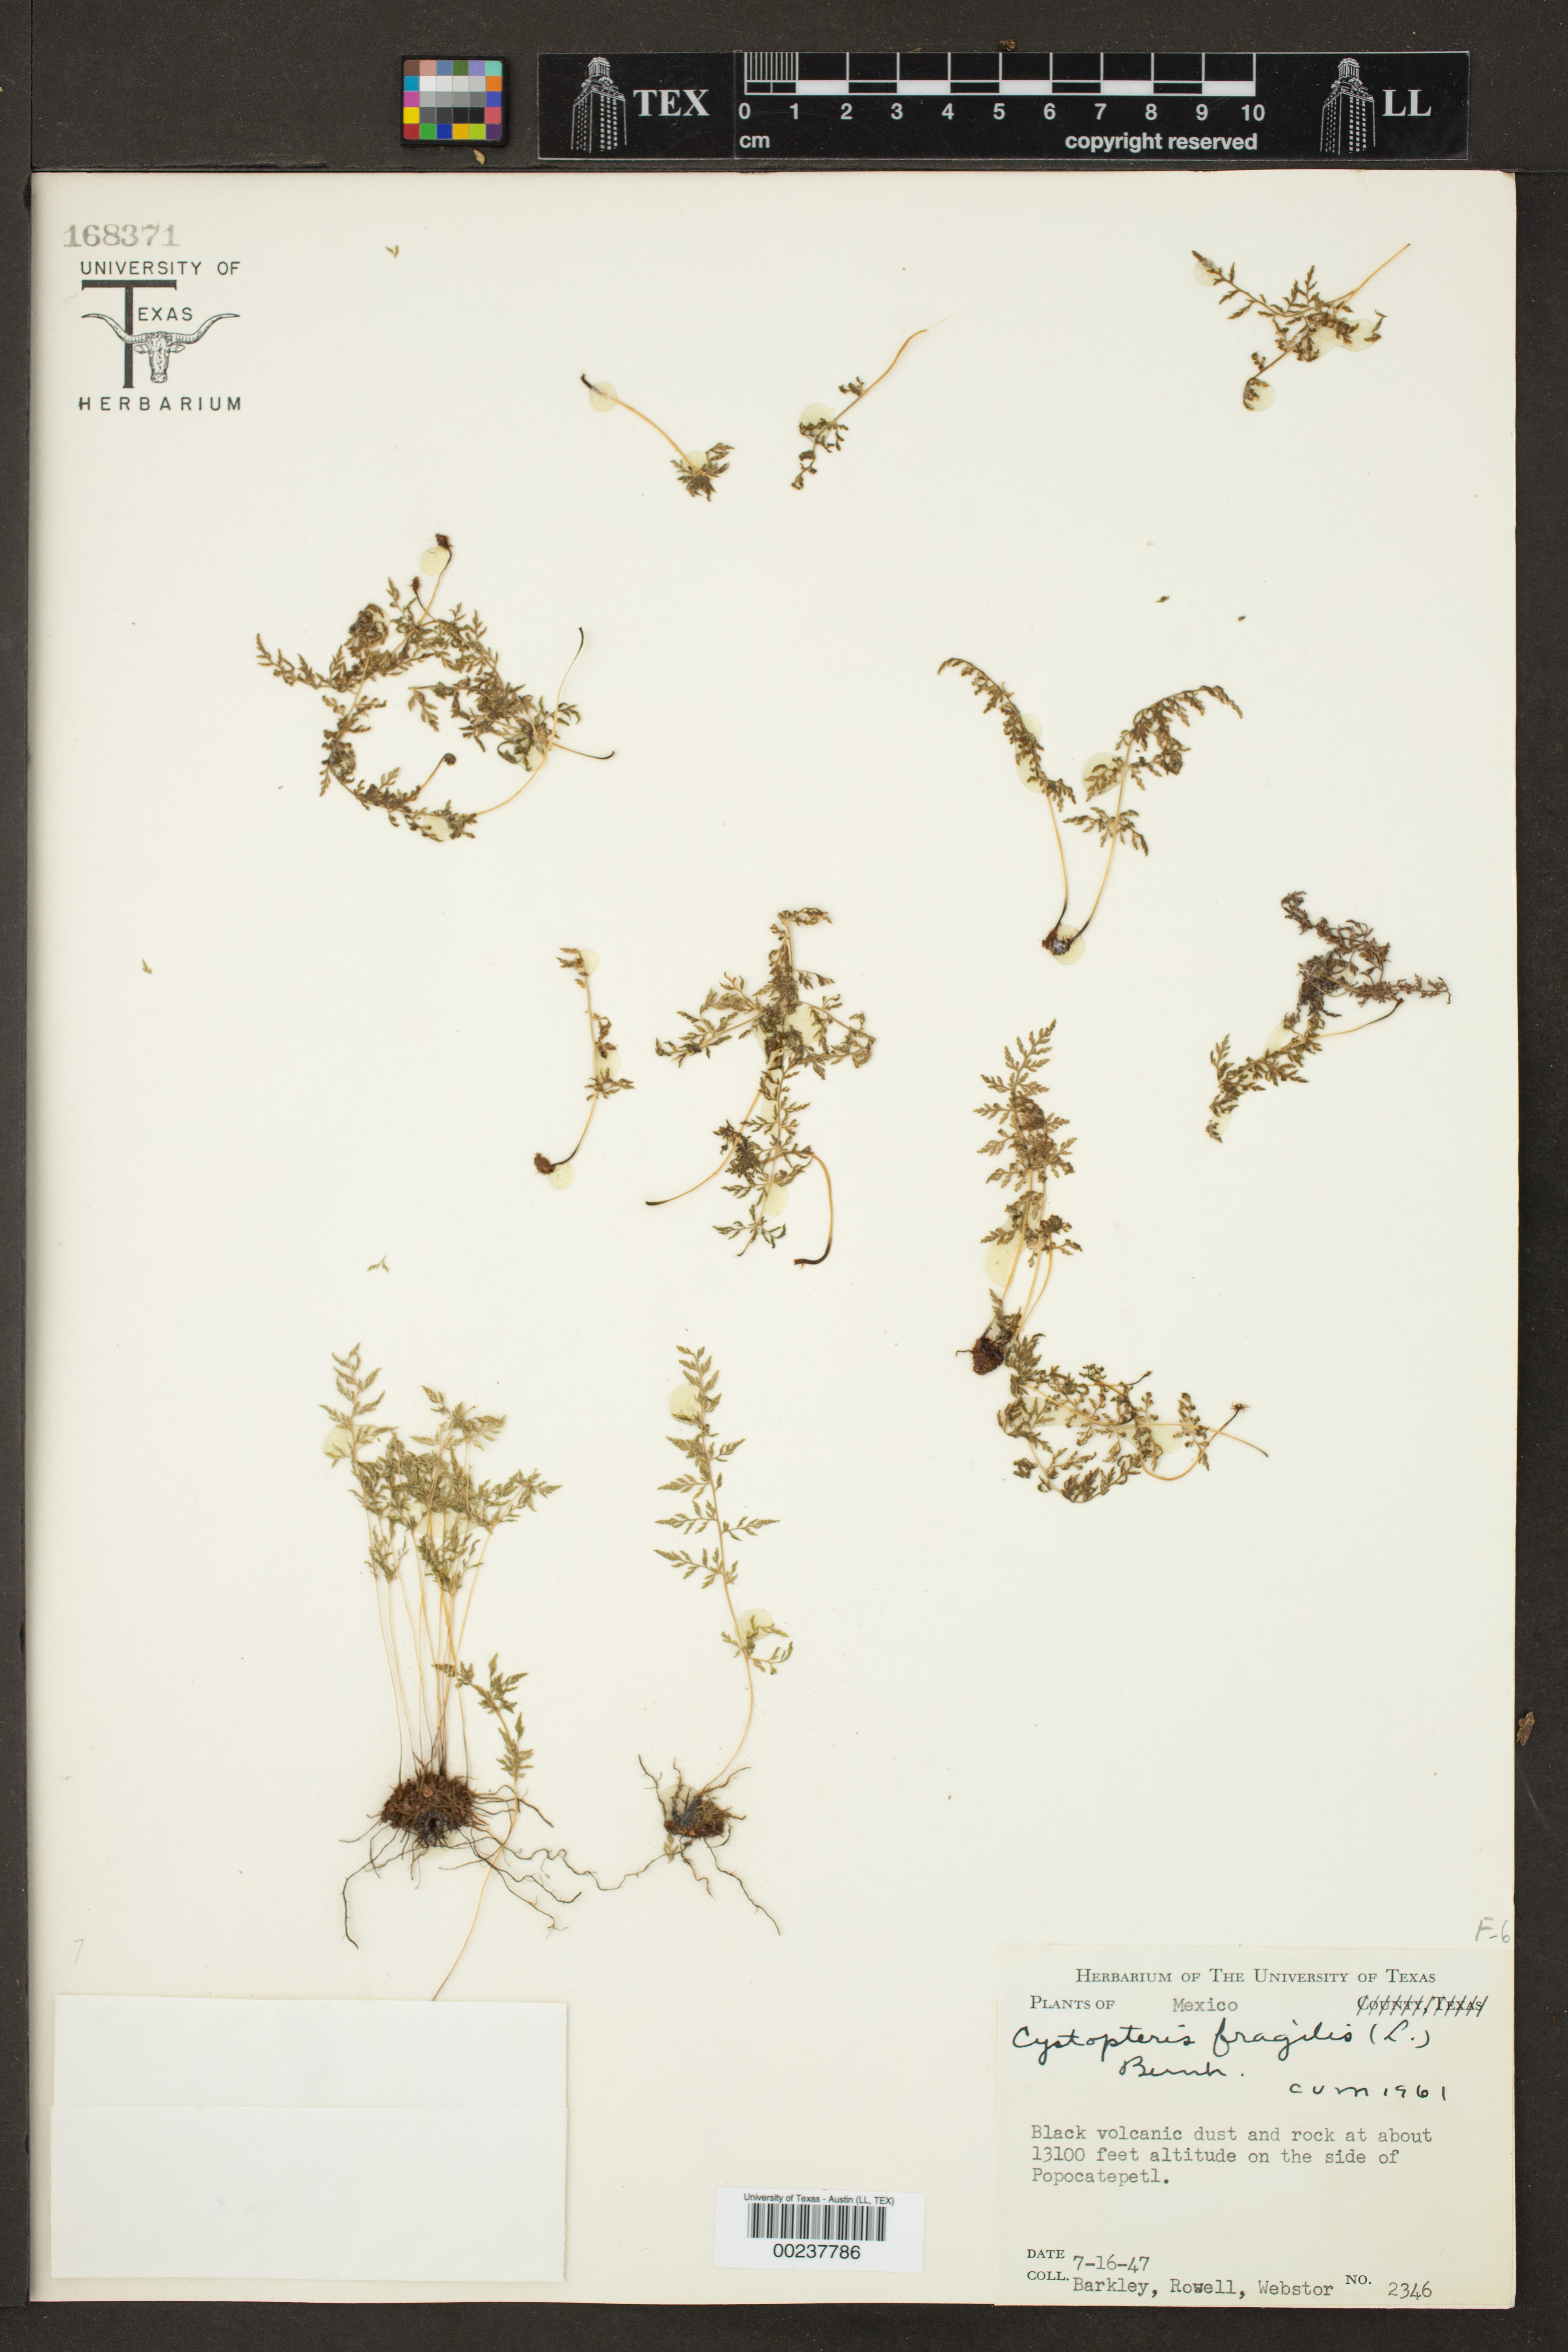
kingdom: Plantae
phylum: Tracheophyta
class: Polypodiopsida
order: Polypodiales
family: Cystopteridaceae
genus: Cystopteris
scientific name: Cystopteris fragilis
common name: Brittle bladder fern
